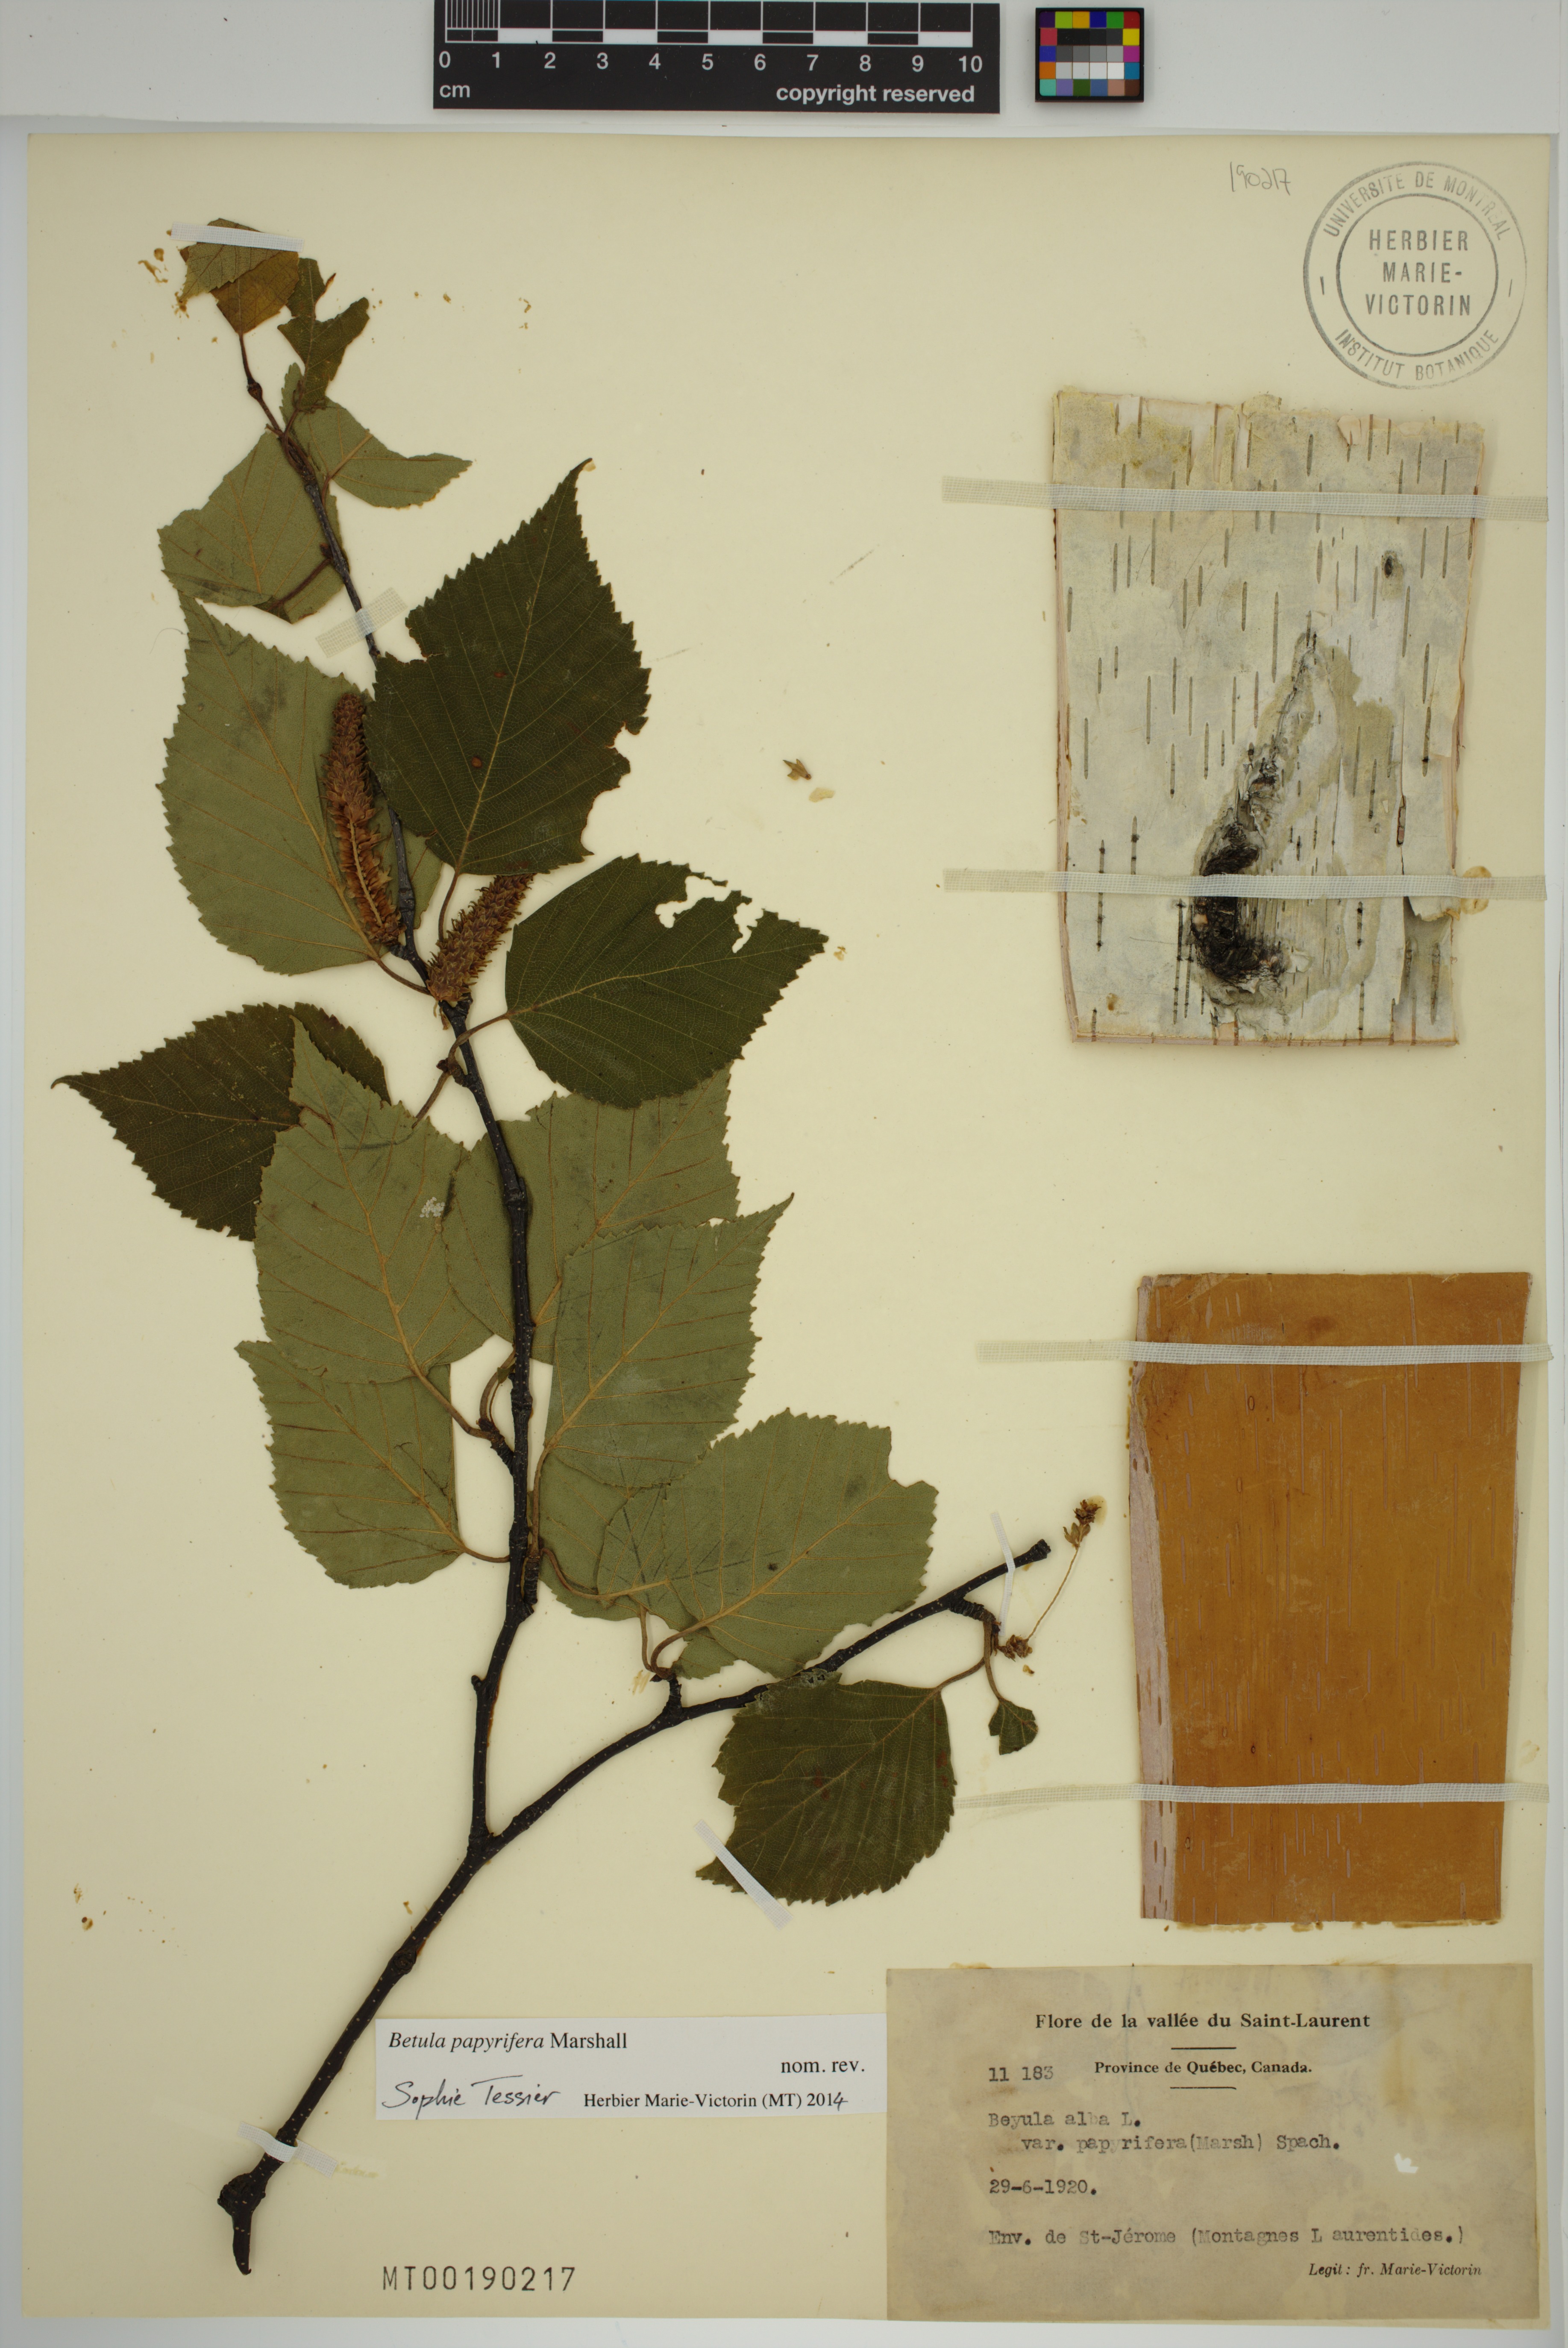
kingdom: Plantae
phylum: Tracheophyta
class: Magnoliopsida
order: Fagales
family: Betulaceae
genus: Betula
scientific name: Betula papyrifera
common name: Paper birch
